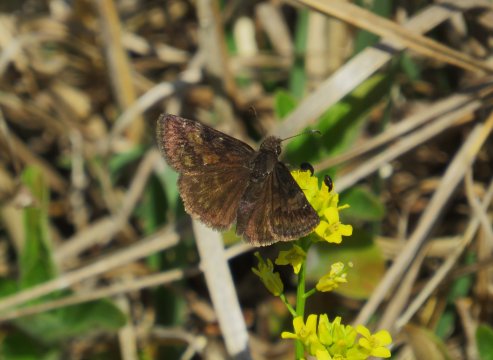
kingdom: Animalia
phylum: Arthropoda
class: Insecta
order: Lepidoptera
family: Hesperiidae
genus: Gesta
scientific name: Gesta
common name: Wild Indigo Duskywing
